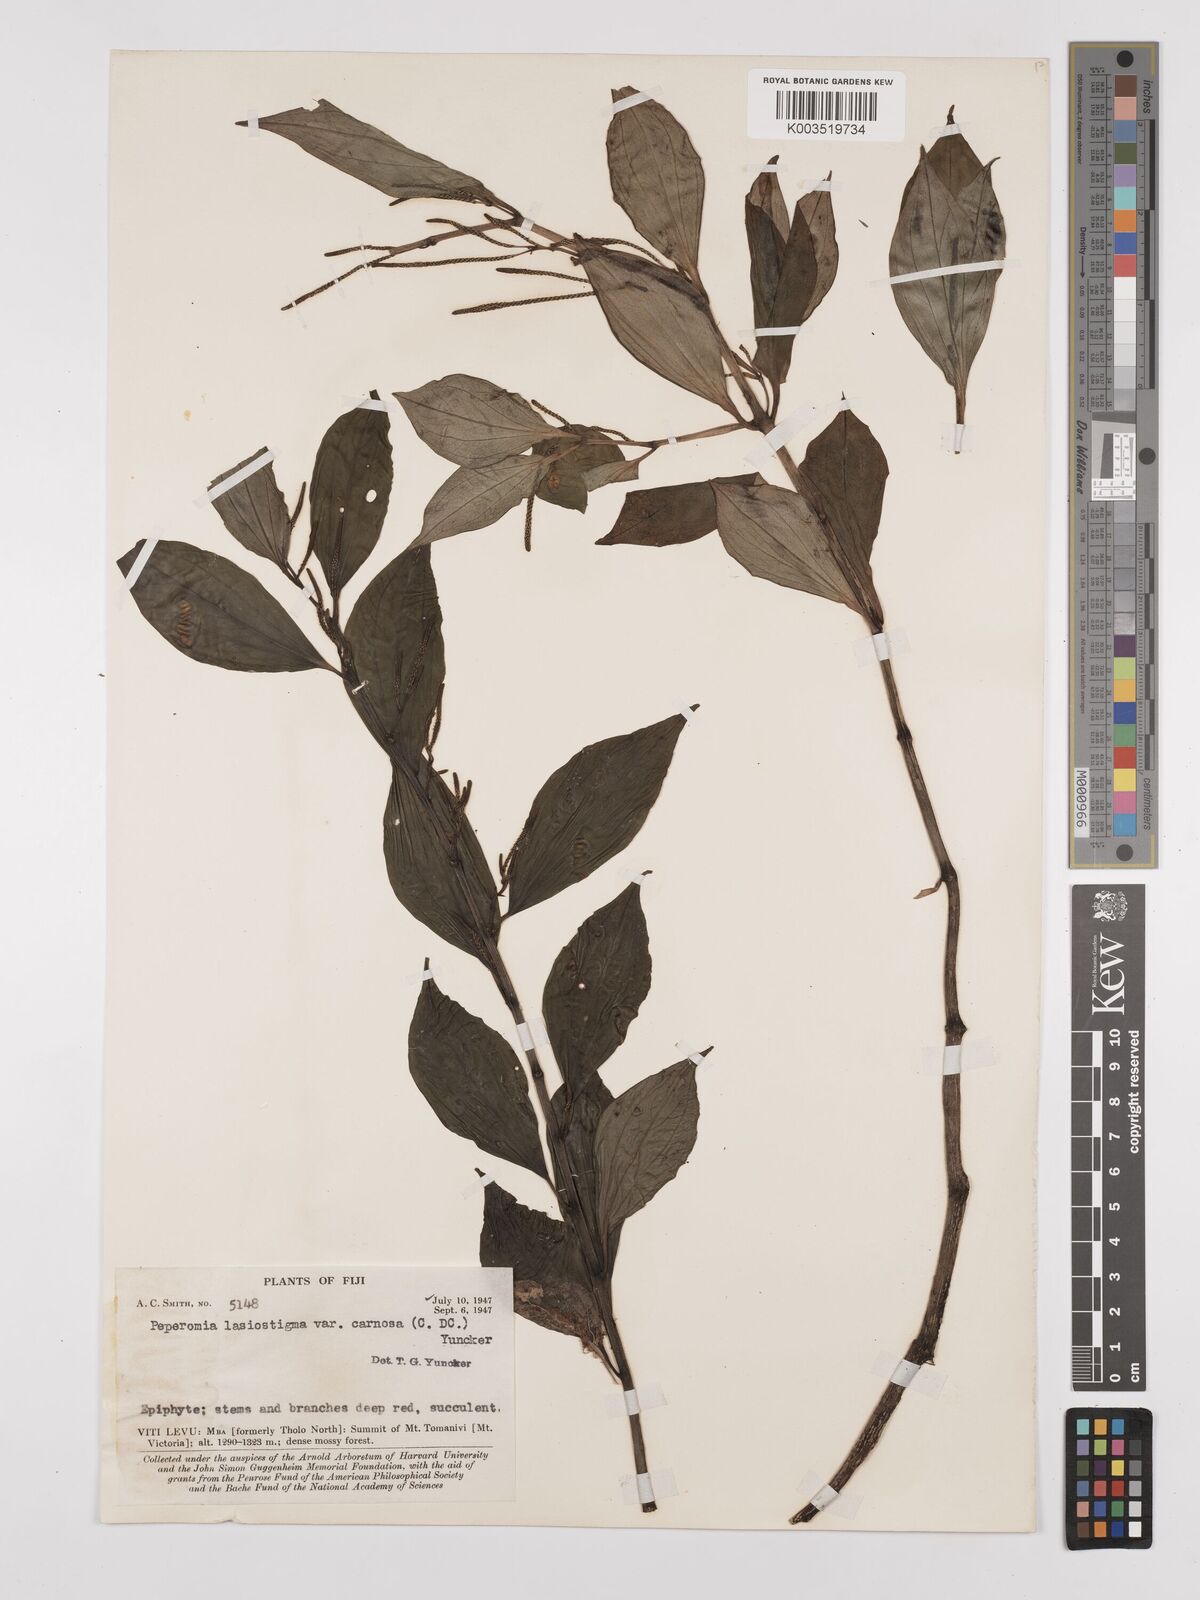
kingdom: Plantae
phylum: Tracheophyta
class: Magnoliopsida
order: Piperales
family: Piperaceae
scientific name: Piperaceae
